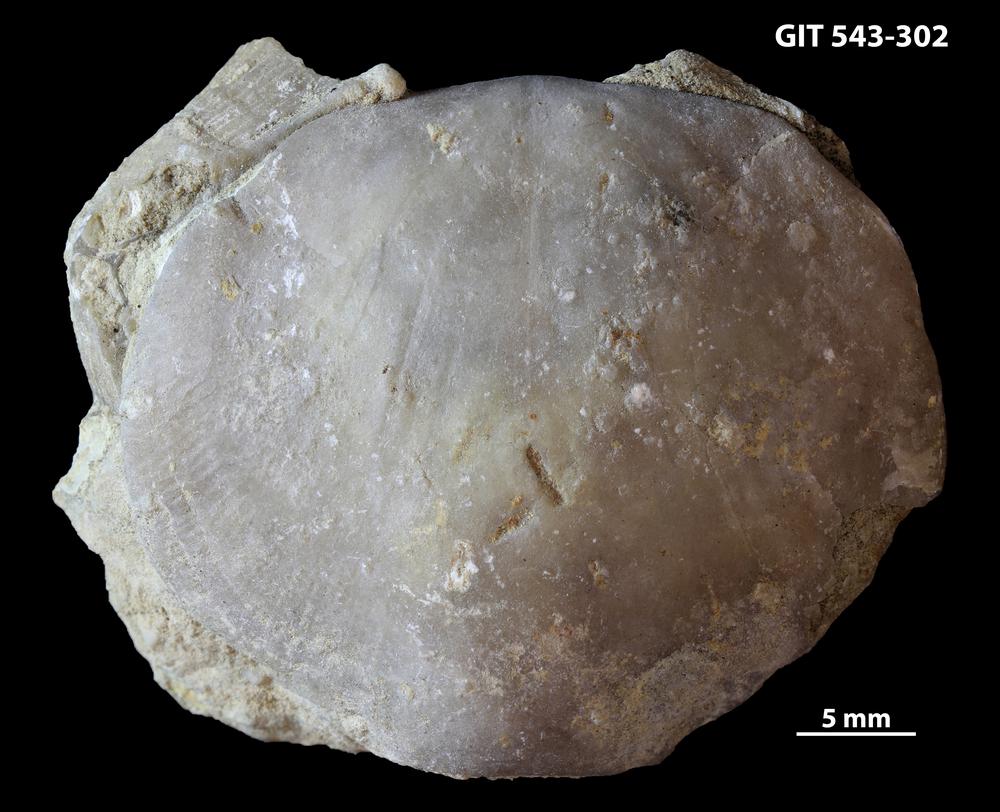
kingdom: Animalia
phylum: Brachiopoda
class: Rhynchonellata
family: Clitambonitidae
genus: Ilmarinia
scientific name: Ilmarinia dimorpha
